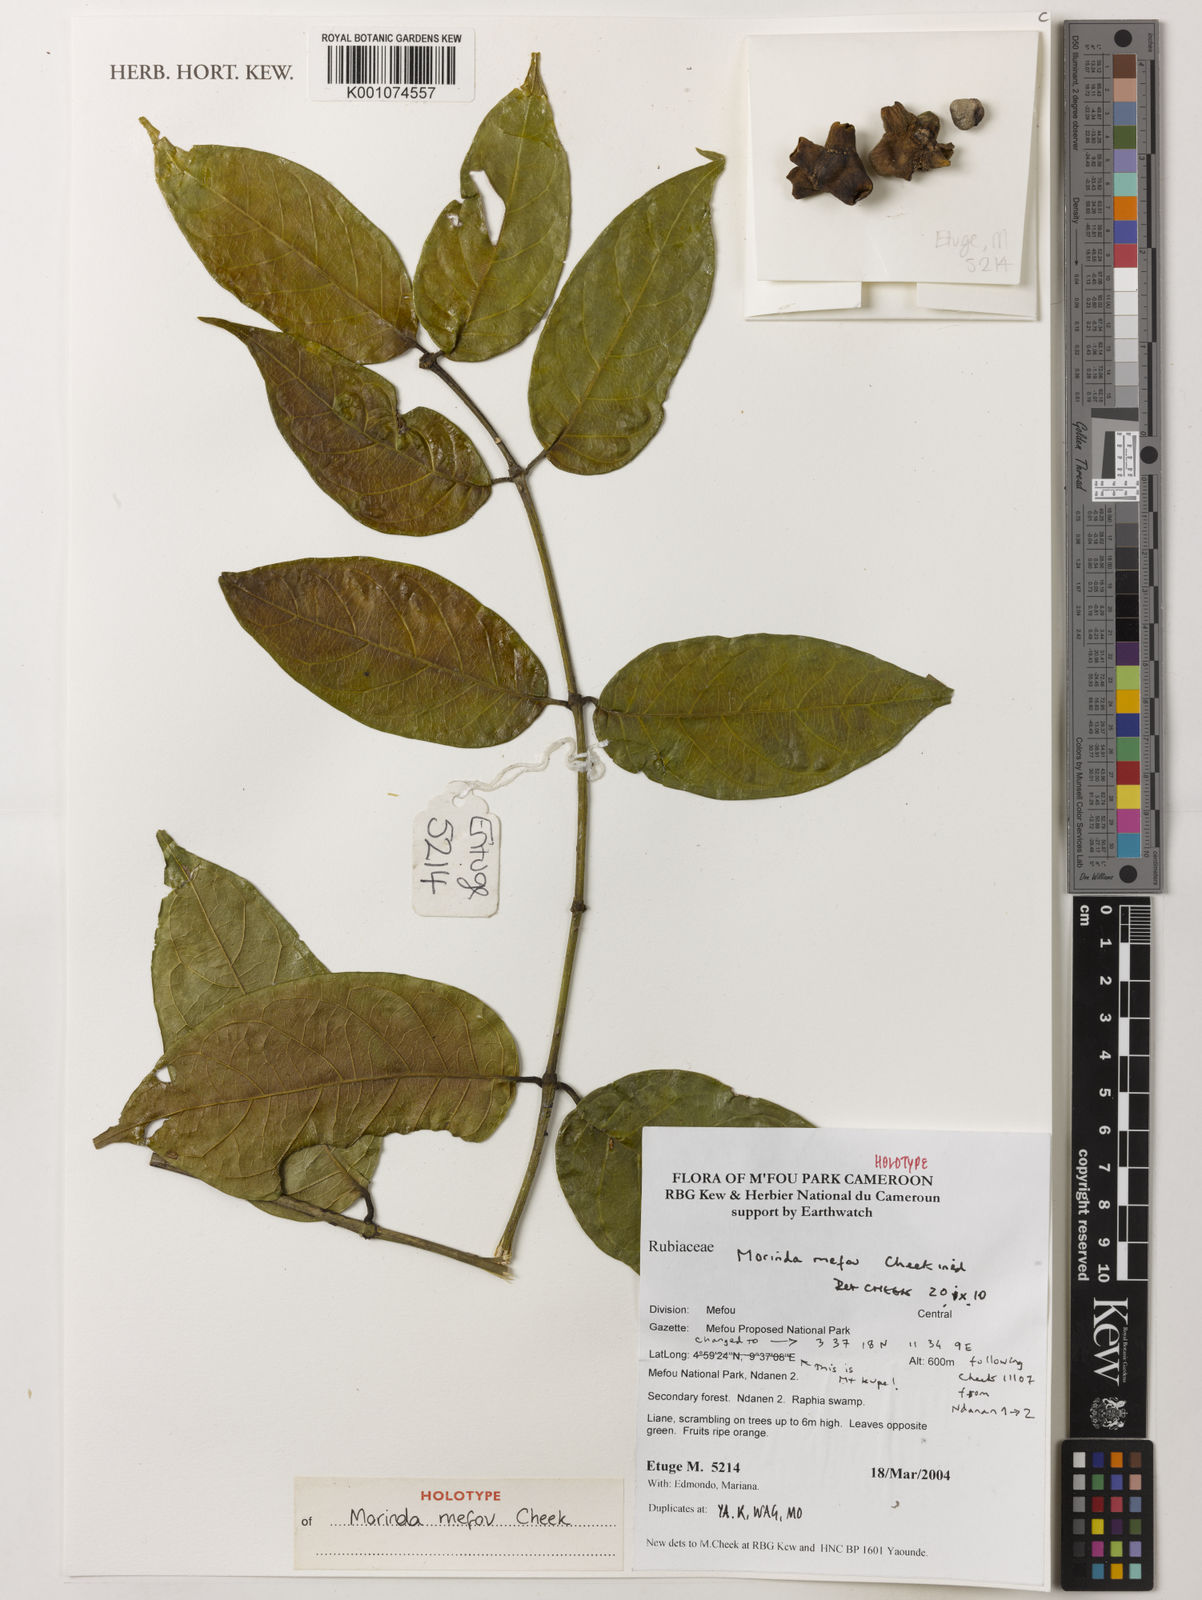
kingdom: Plantae
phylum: Tracheophyta
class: Magnoliopsida
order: Gentianales
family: Rubiaceae
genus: Morinda
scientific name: Morinda mefou
